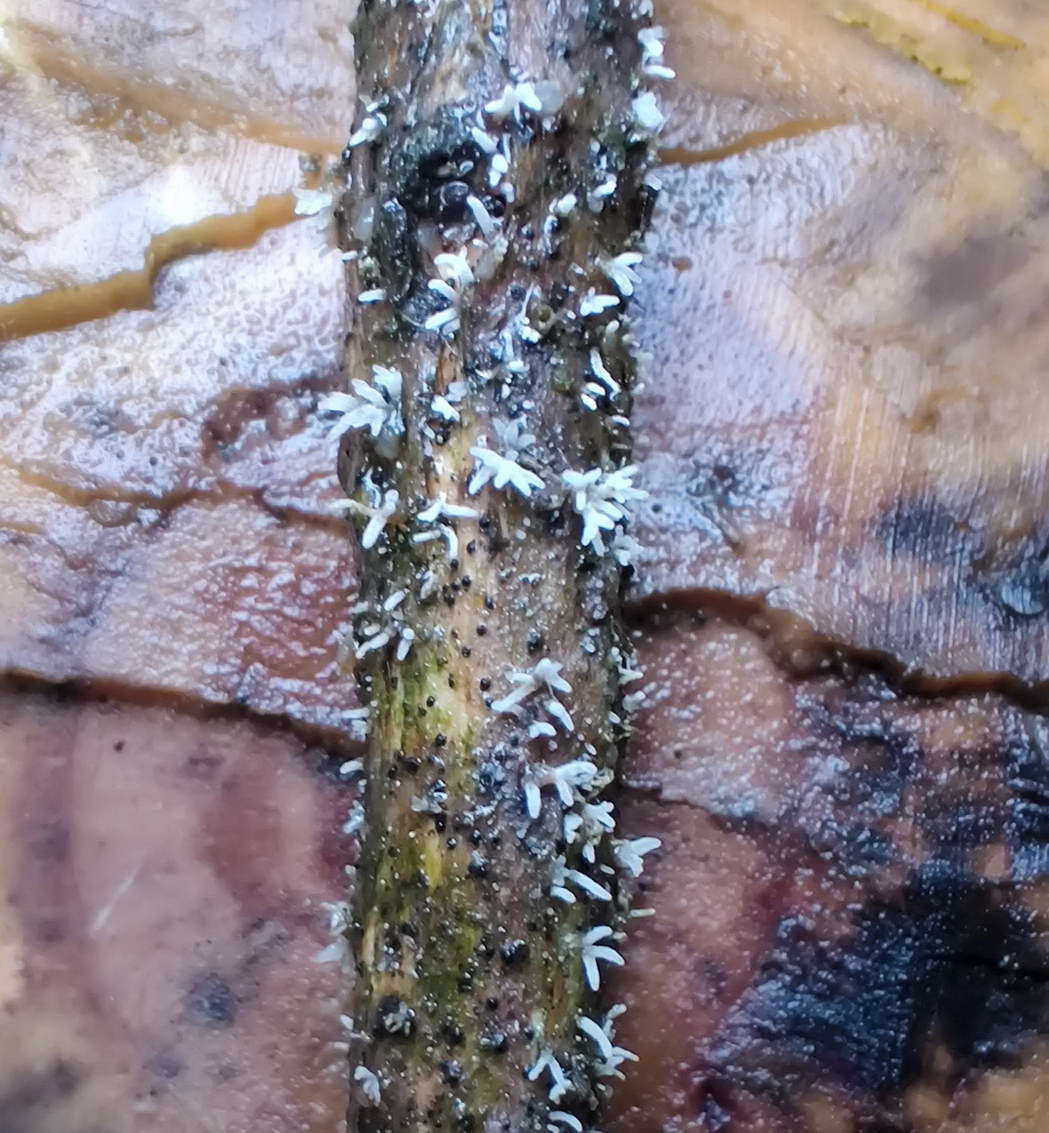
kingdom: Fungi
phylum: Ascomycota
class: Sordariomycetes
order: Hypocreales
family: Cordycipitaceae
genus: Isaria
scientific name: Isaria friesii
